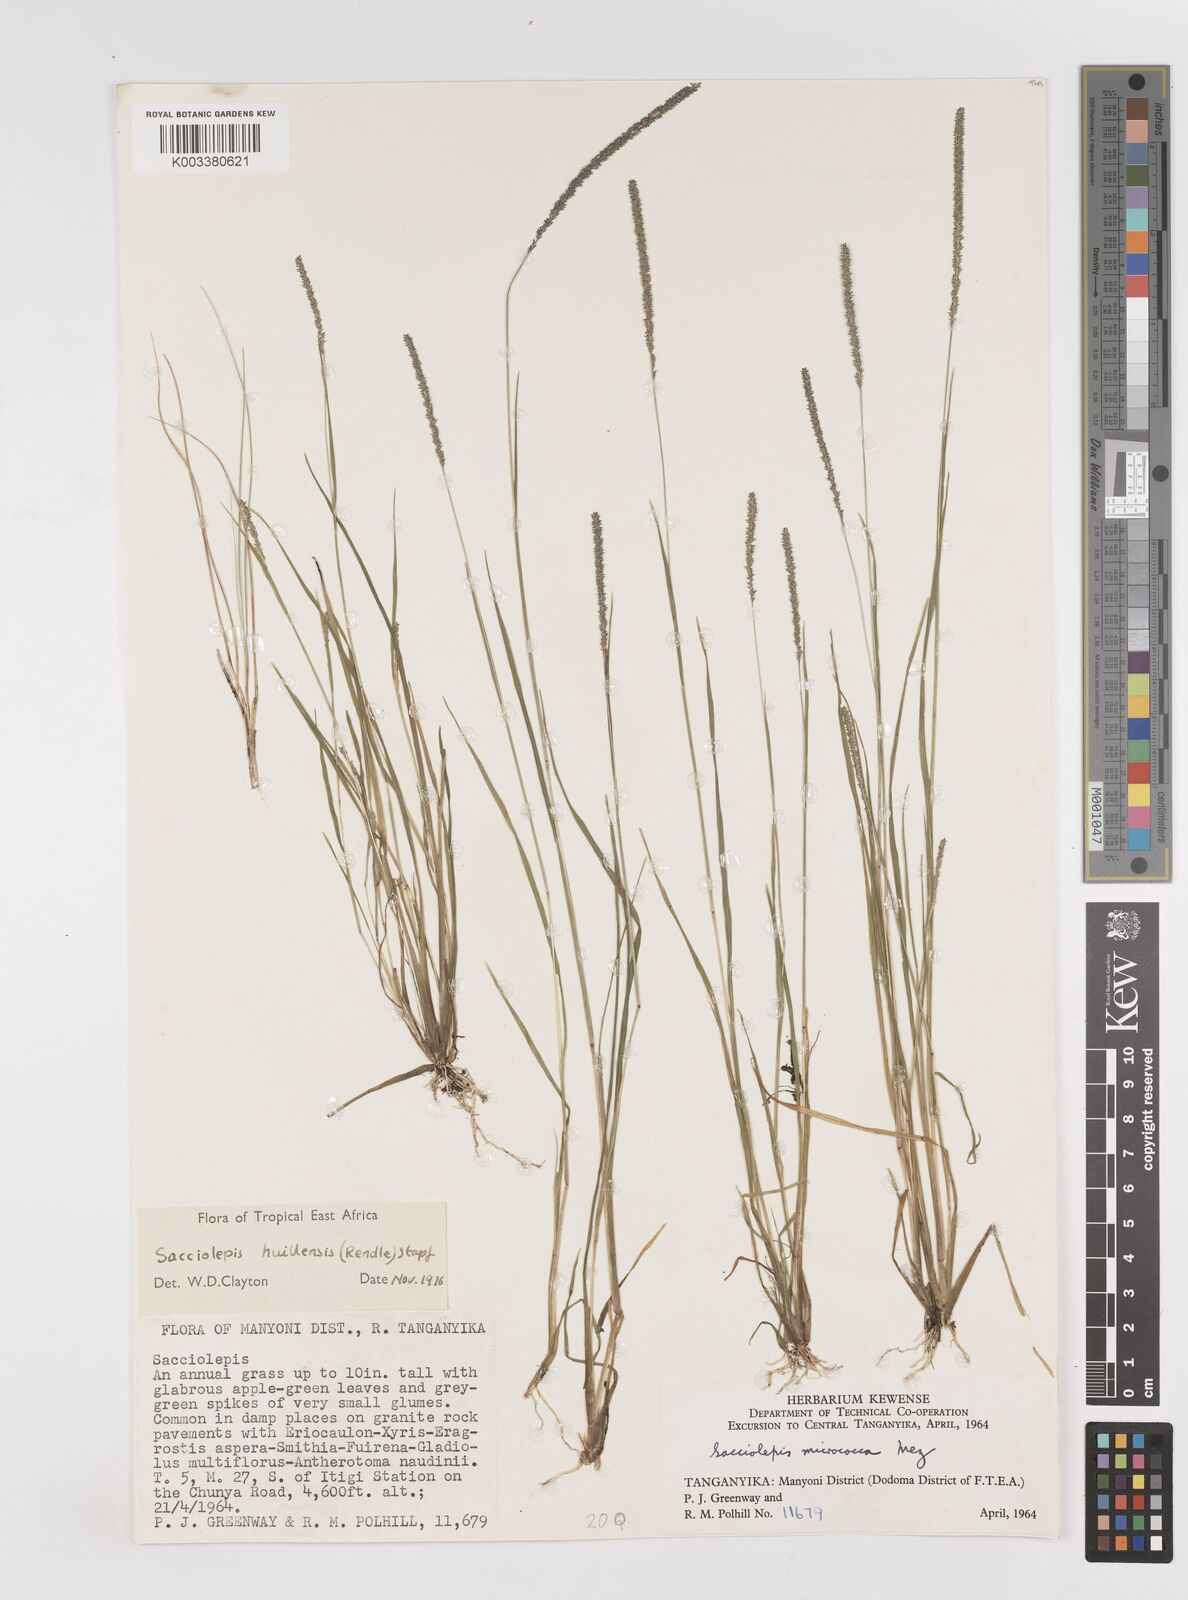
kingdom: Plantae
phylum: Tracheophyta
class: Liliopsida
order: Poales
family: Poaceae
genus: Sacciolepis
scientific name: Sacciolepis myosuroides
